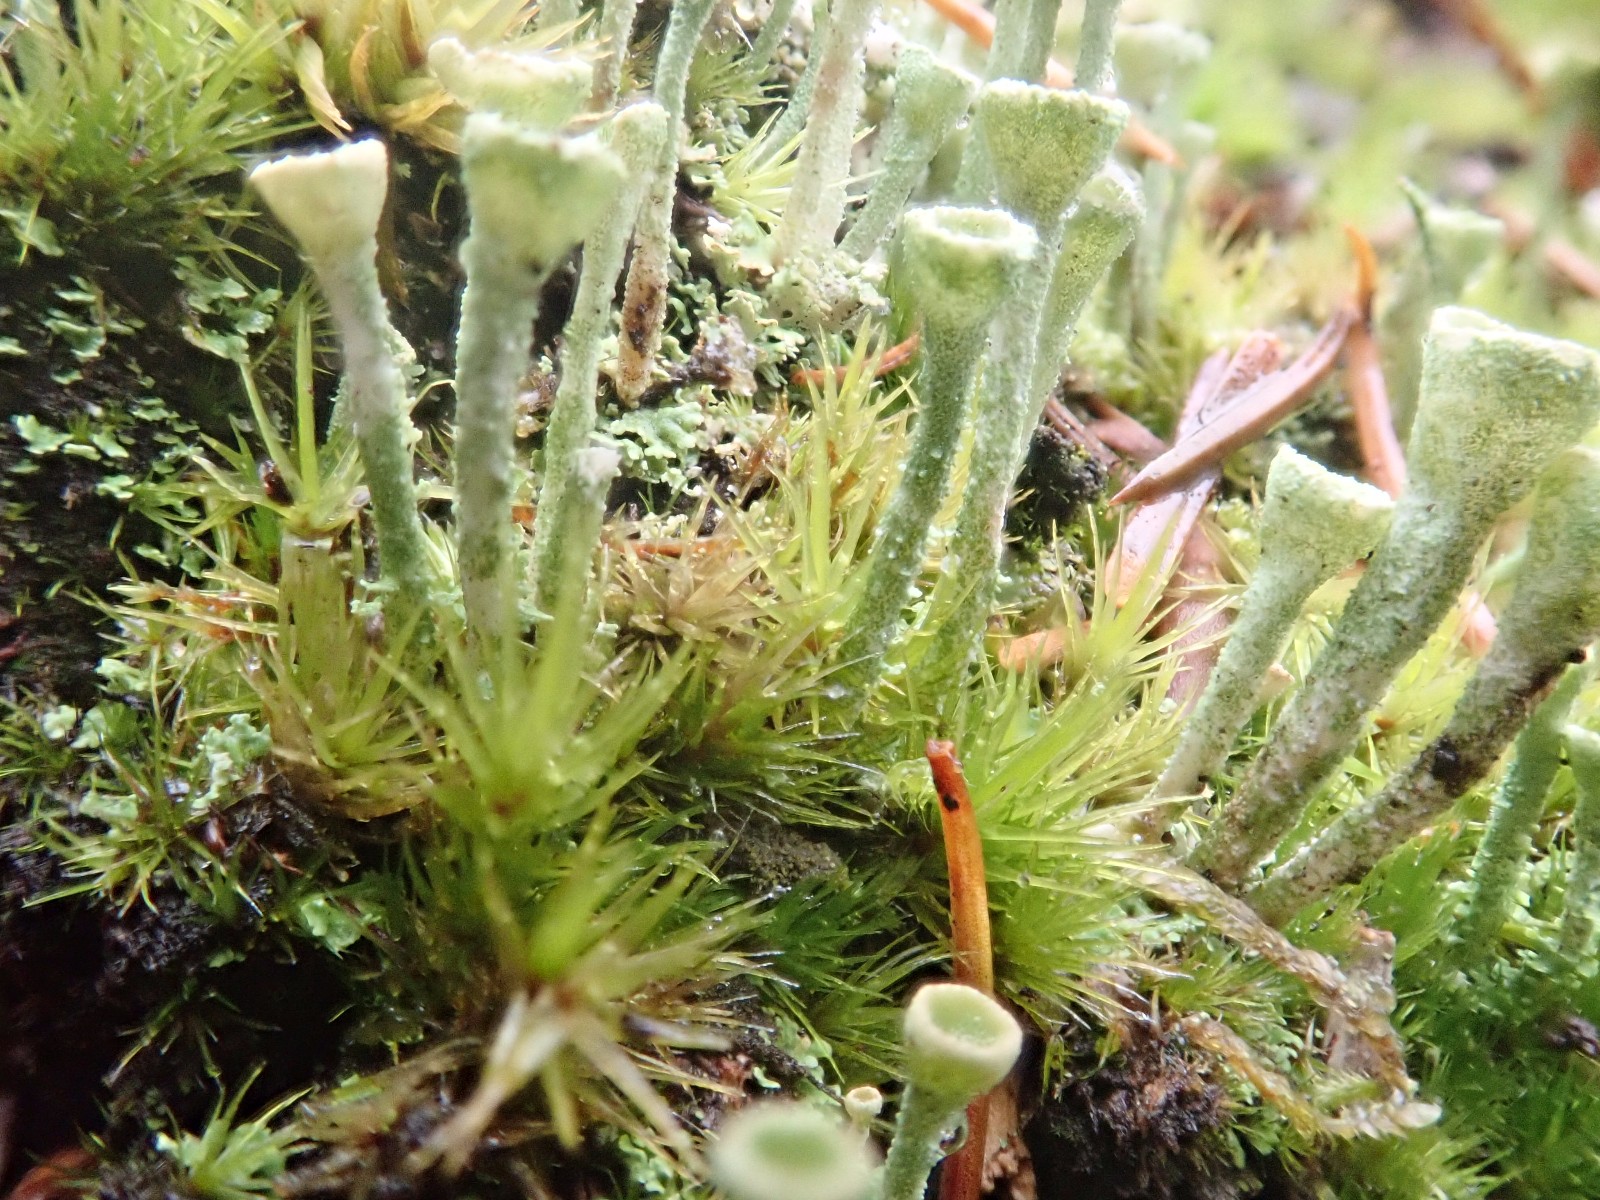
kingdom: Fungi
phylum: Ascomycota
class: Lecanoromycetes
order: Lecanorales
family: Cladoniaceae
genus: Cladonia
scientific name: Cladonia fimbriata
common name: bleggrøn bægerlav
